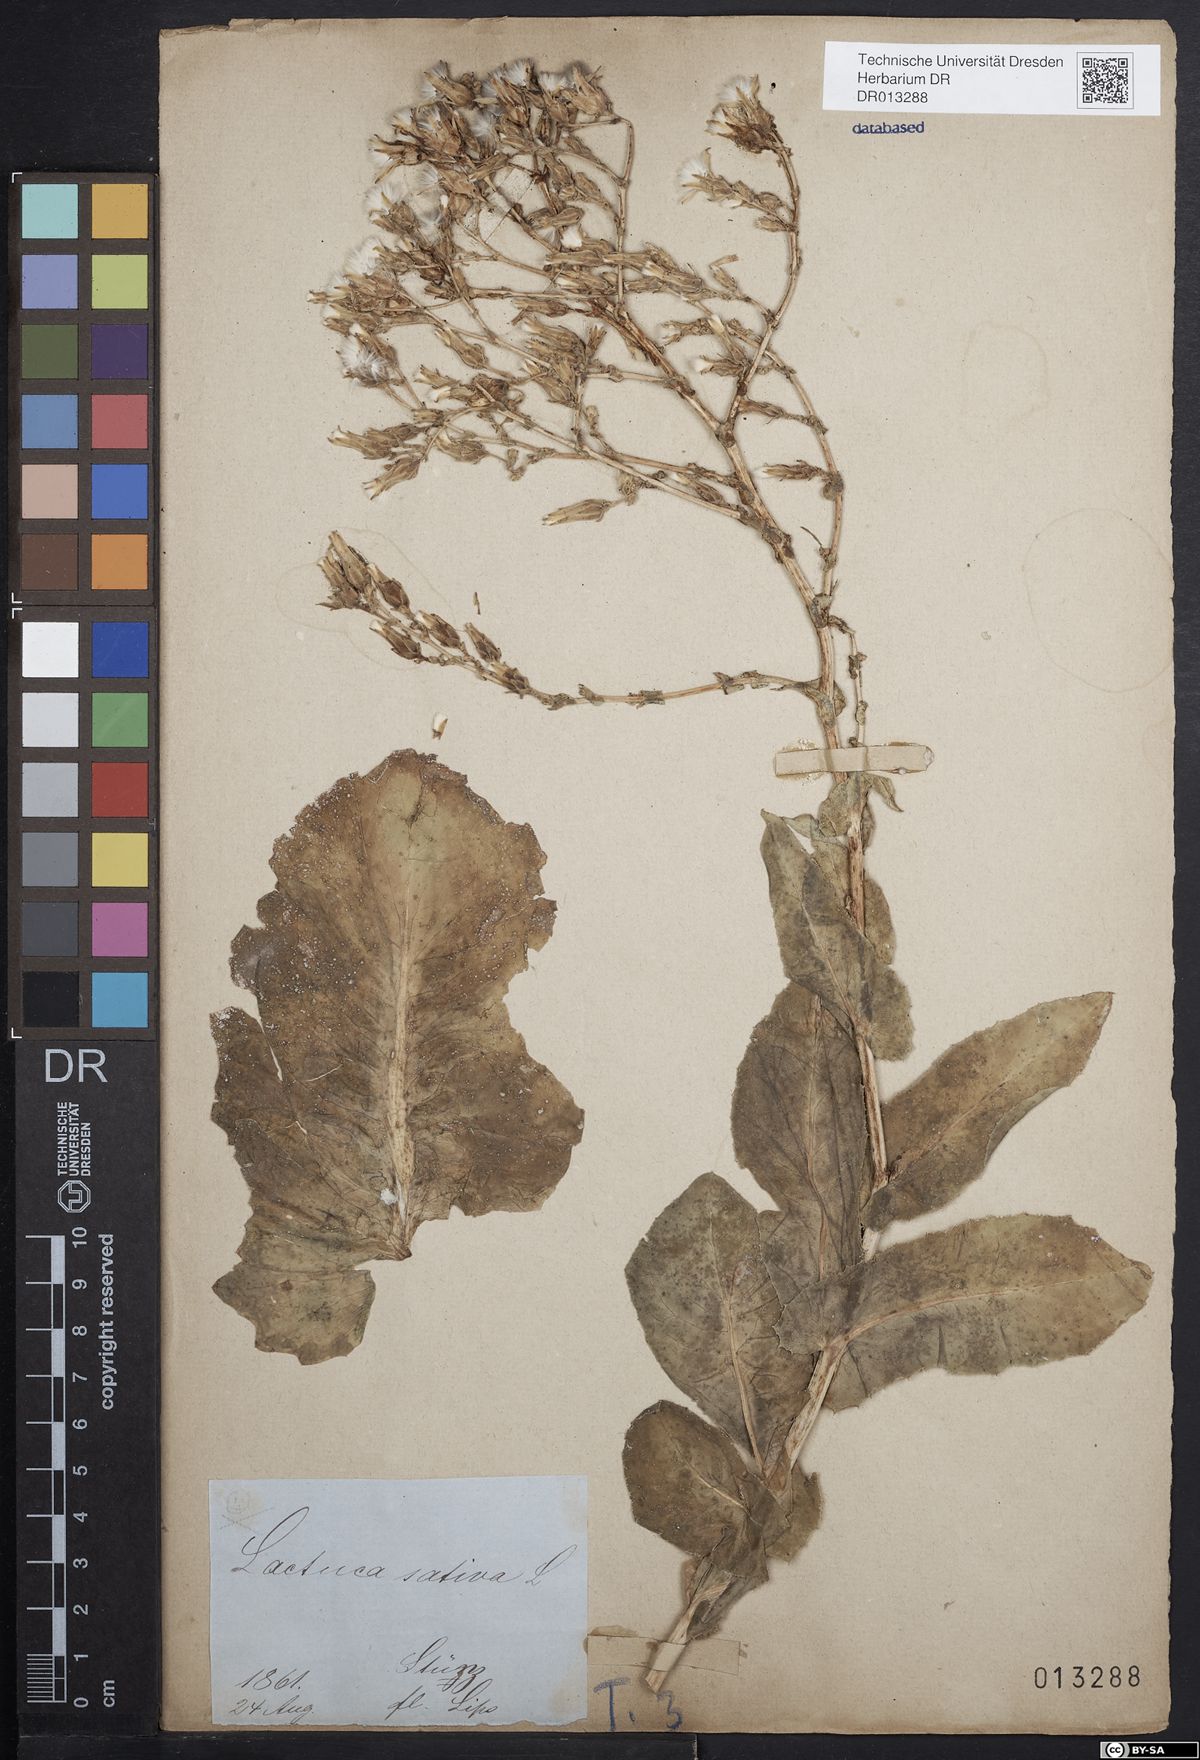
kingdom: Plantae
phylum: Tracheophyta
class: Magnoliopsida
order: Asterales
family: Asteraceae
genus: Lactuca
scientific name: Lactuca sativa
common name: Garden lettuce
